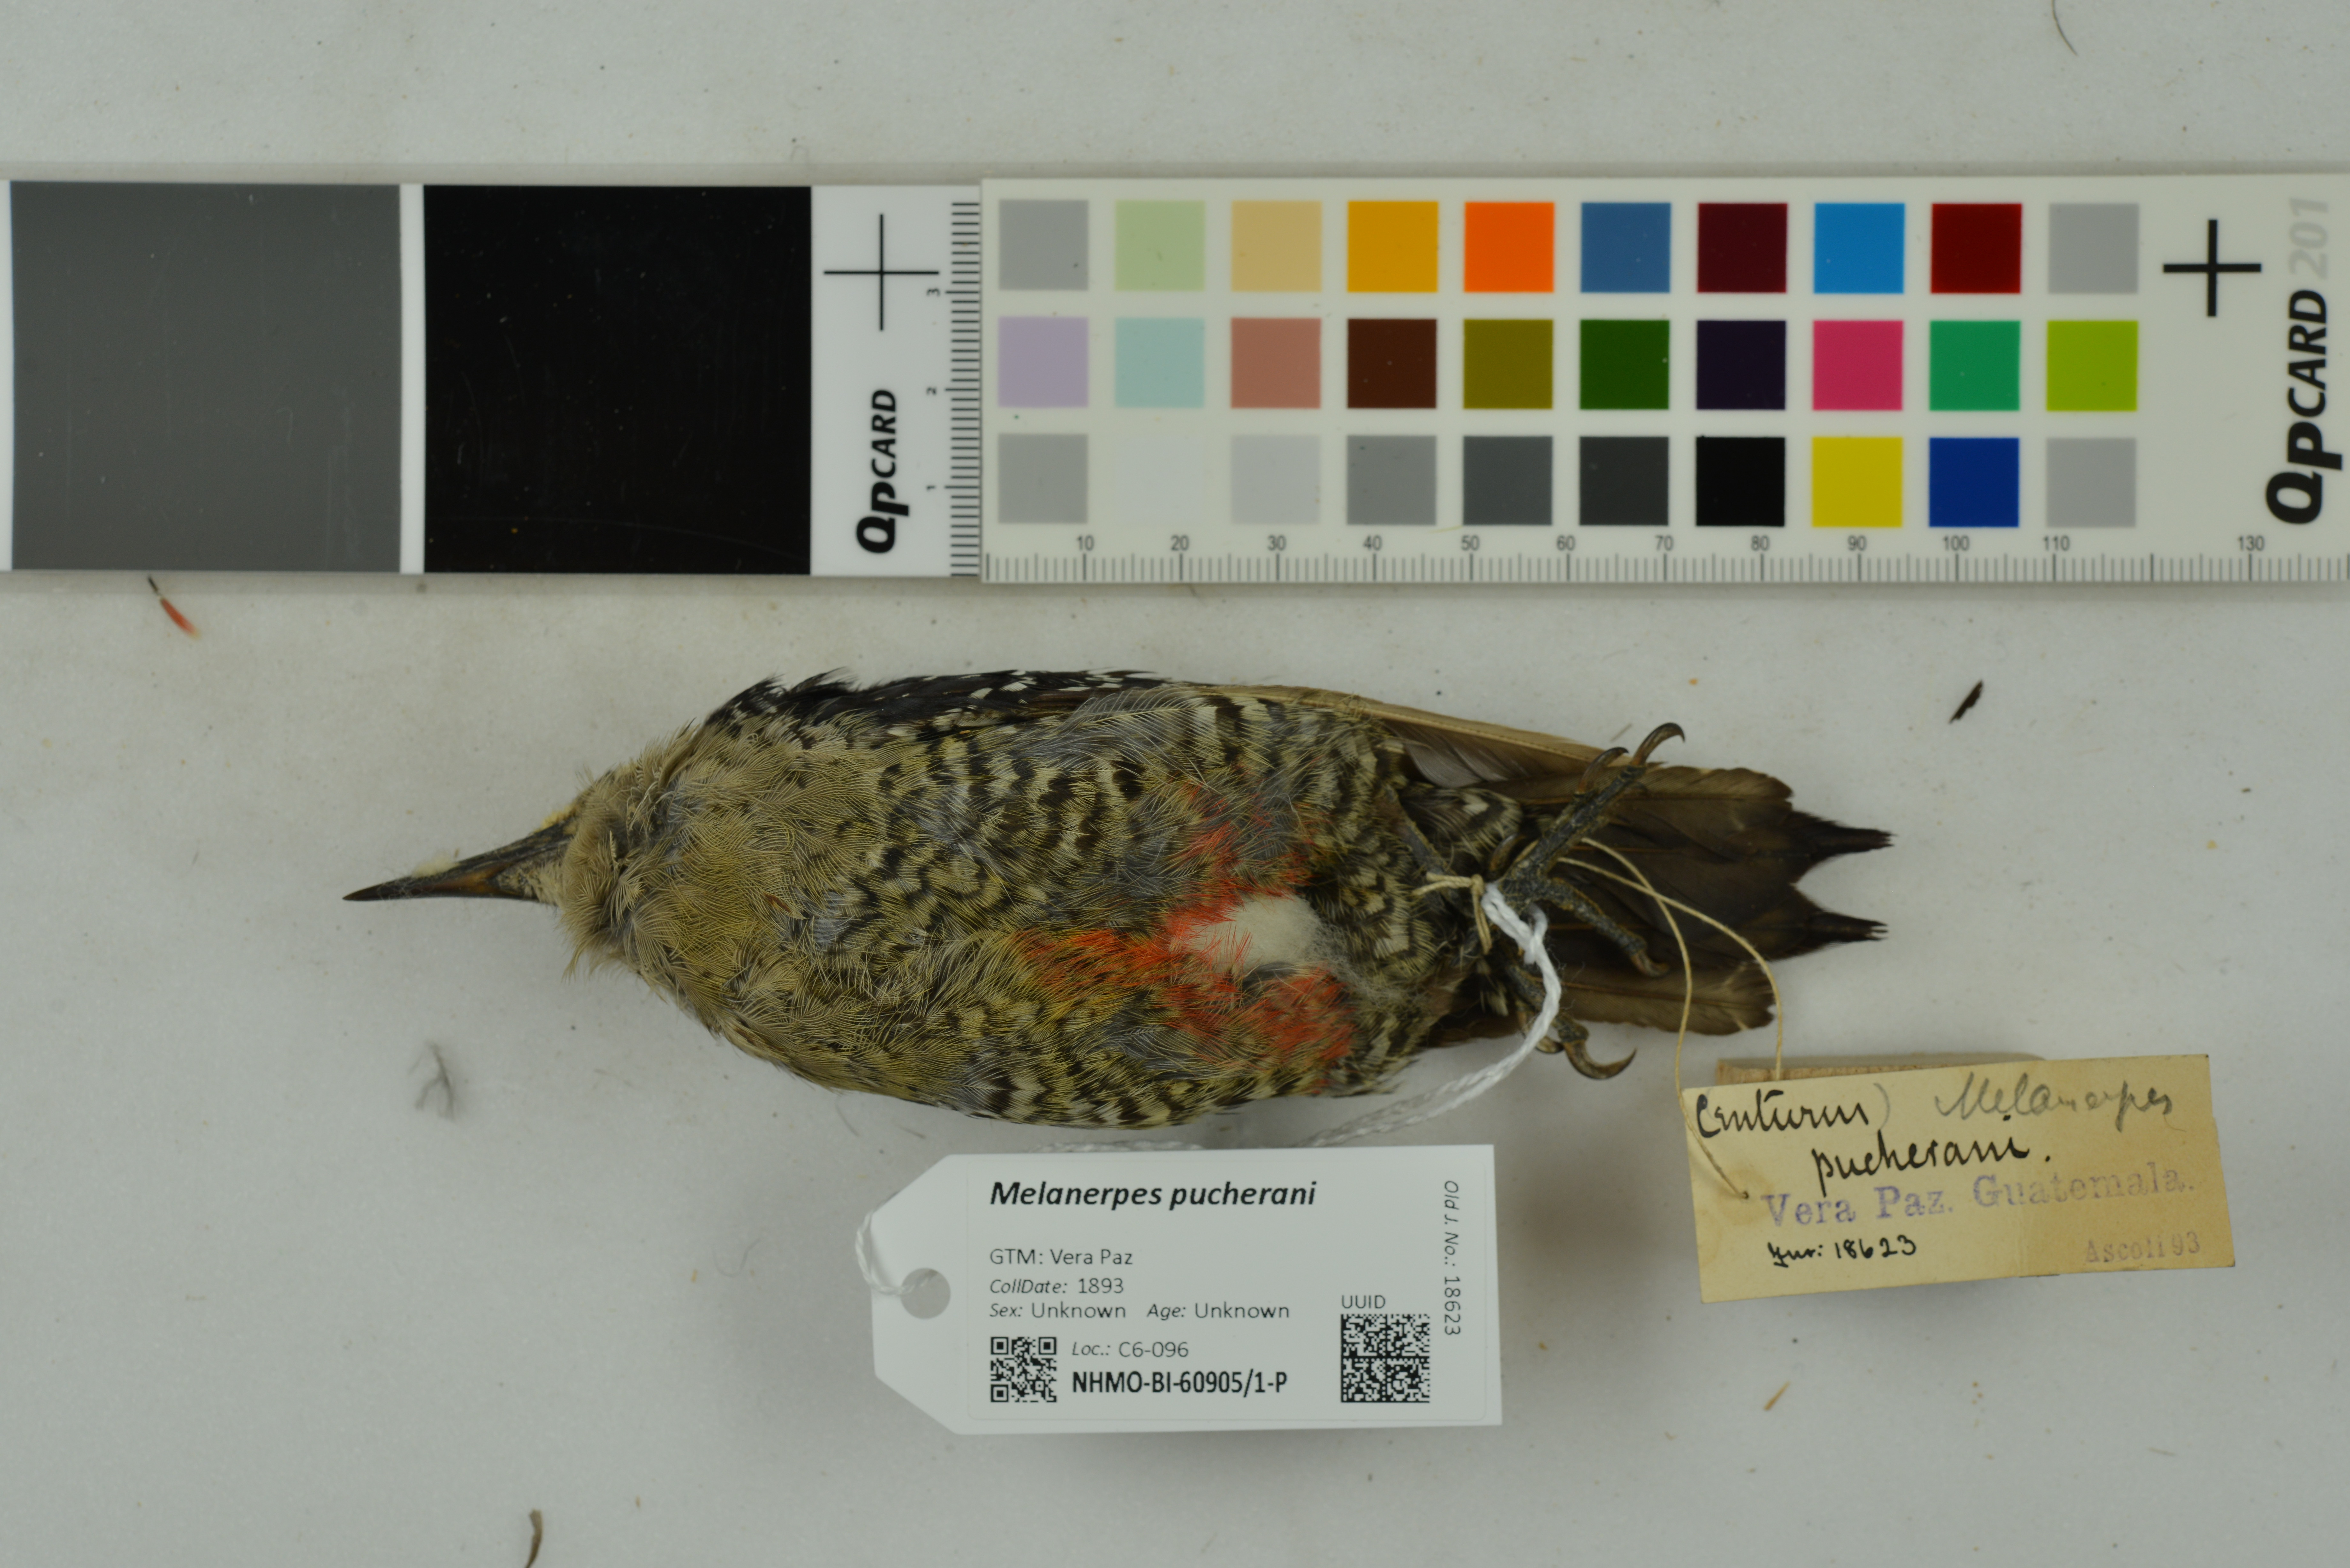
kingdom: Animalia
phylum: Chordata
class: Aves
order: Piciformes
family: Picidae
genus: Melanerpes
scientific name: Melanerpes pucherani
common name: Black-cheeked woodpecker
